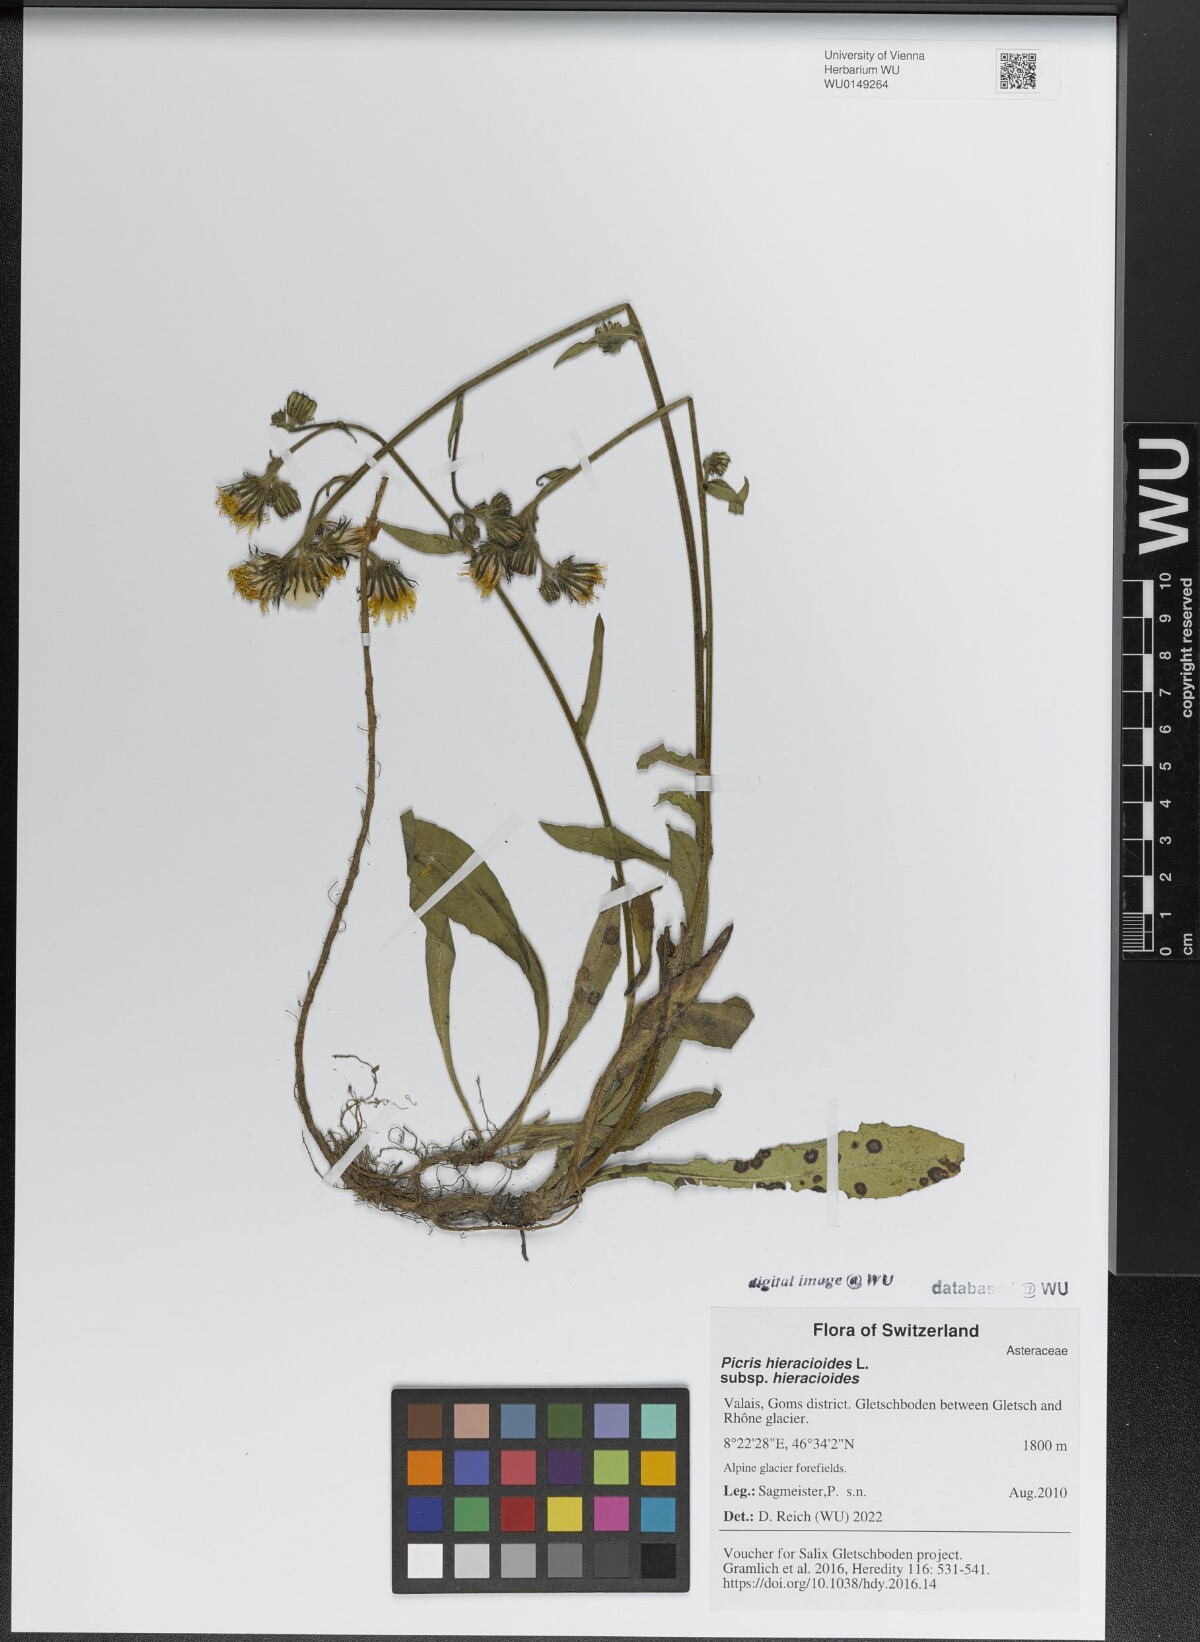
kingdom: Plantae
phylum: Tracheophyta
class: Magnoliopsida
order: Asterales
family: Asteraceae
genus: Picris
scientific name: Picris hieracioides
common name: Hawkweed oxtongue
